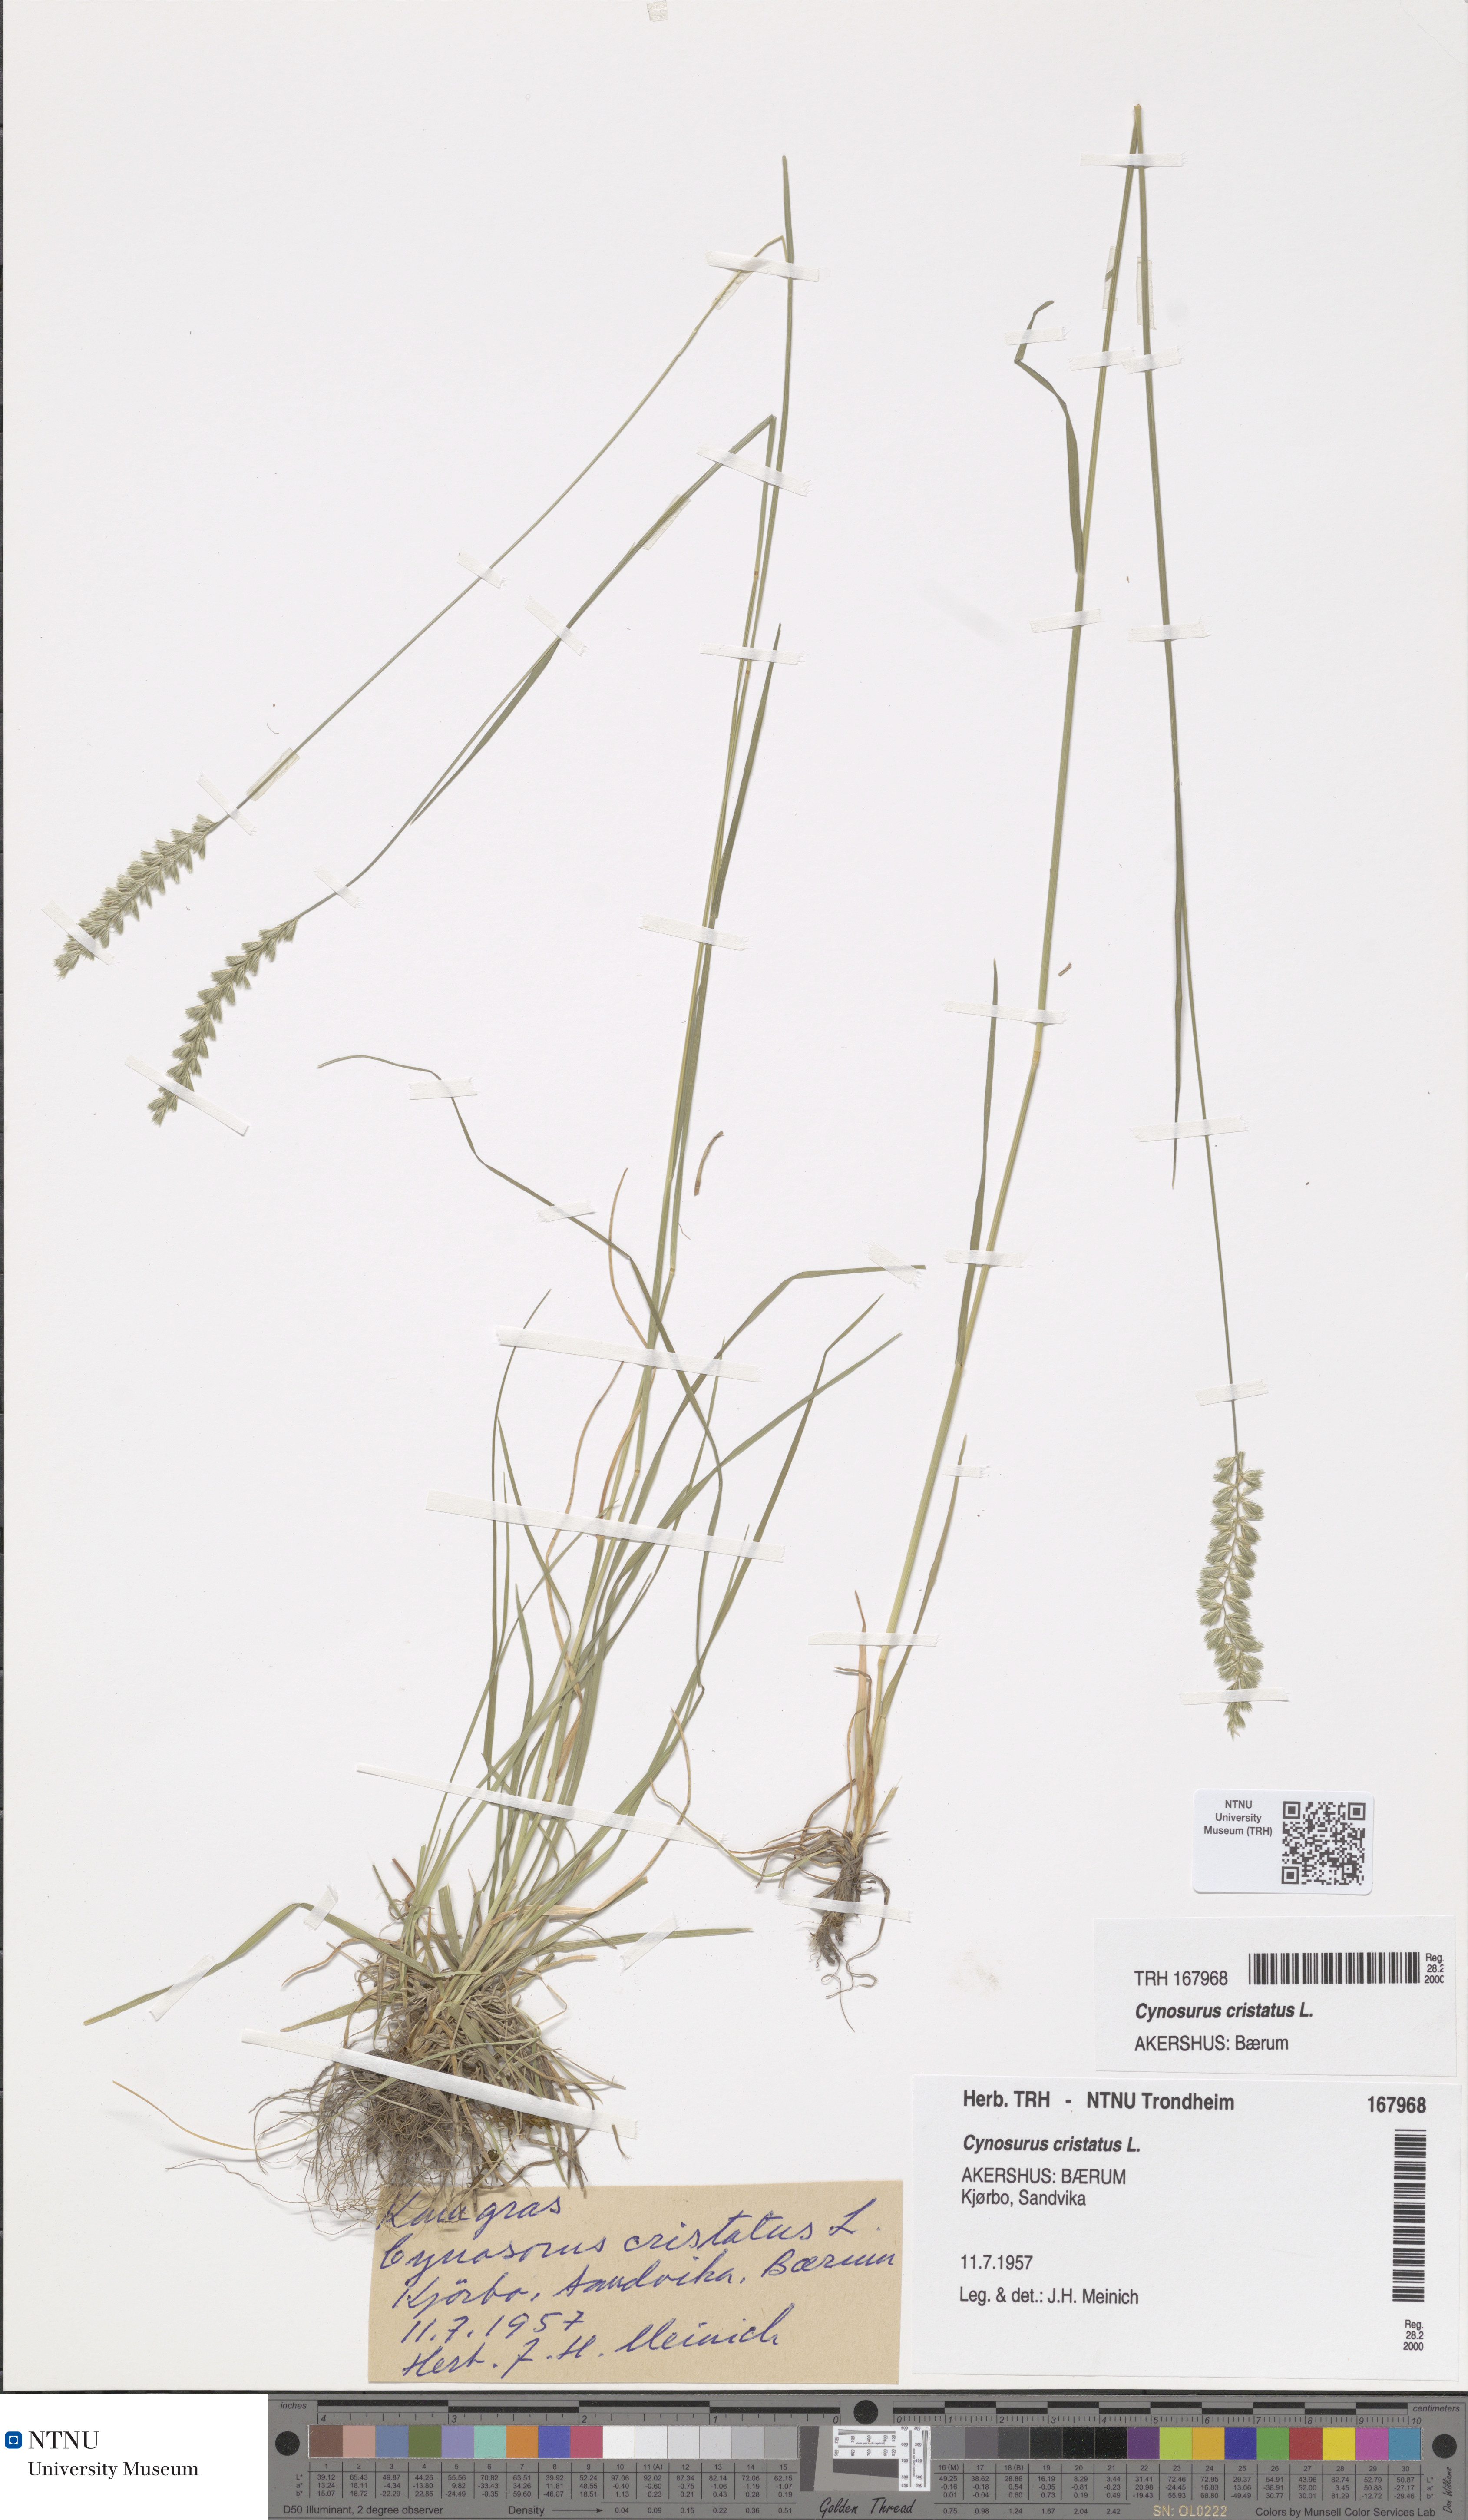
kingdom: Plantae
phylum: Tracheophyta
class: Liliopsida
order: Poales
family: Poaceae
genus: Cynosurus
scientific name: Cynosurus cristatus
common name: Crested dog's-tail
